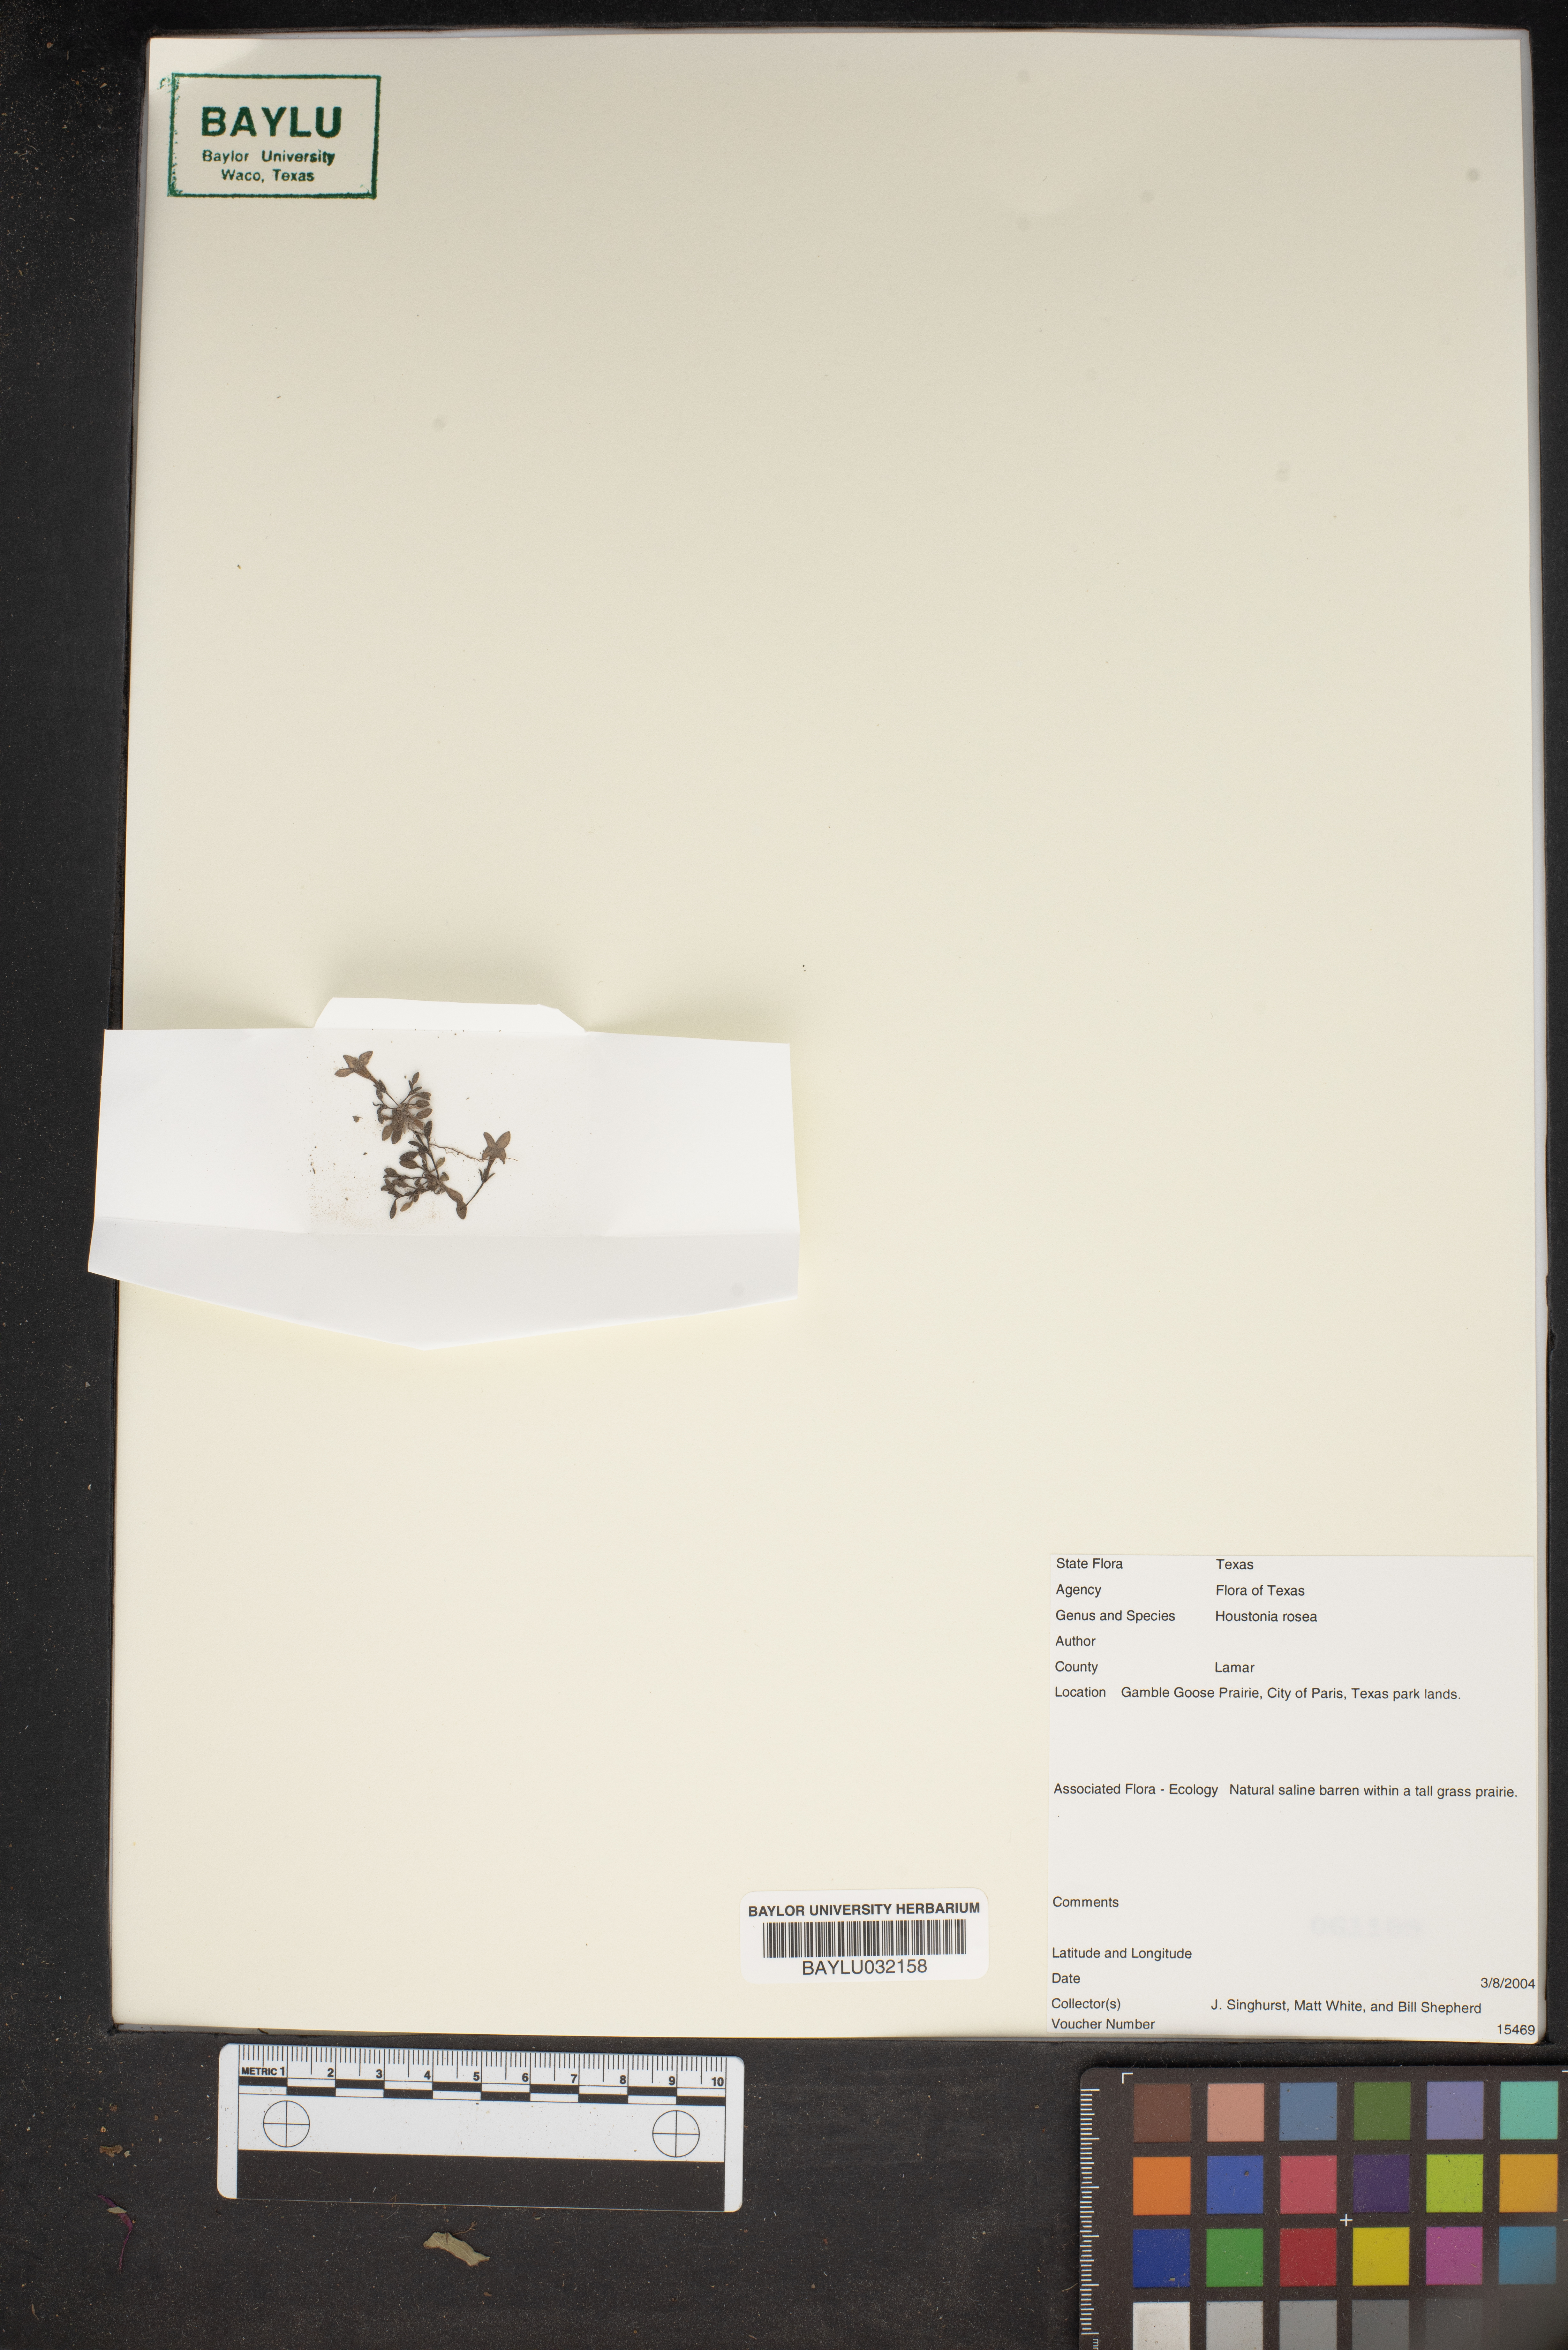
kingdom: Plantae
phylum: Tracheophyta
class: Magnoliopsida
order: Gentianales
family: Rubiaceae
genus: Houstonia
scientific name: Houstonia rosea
